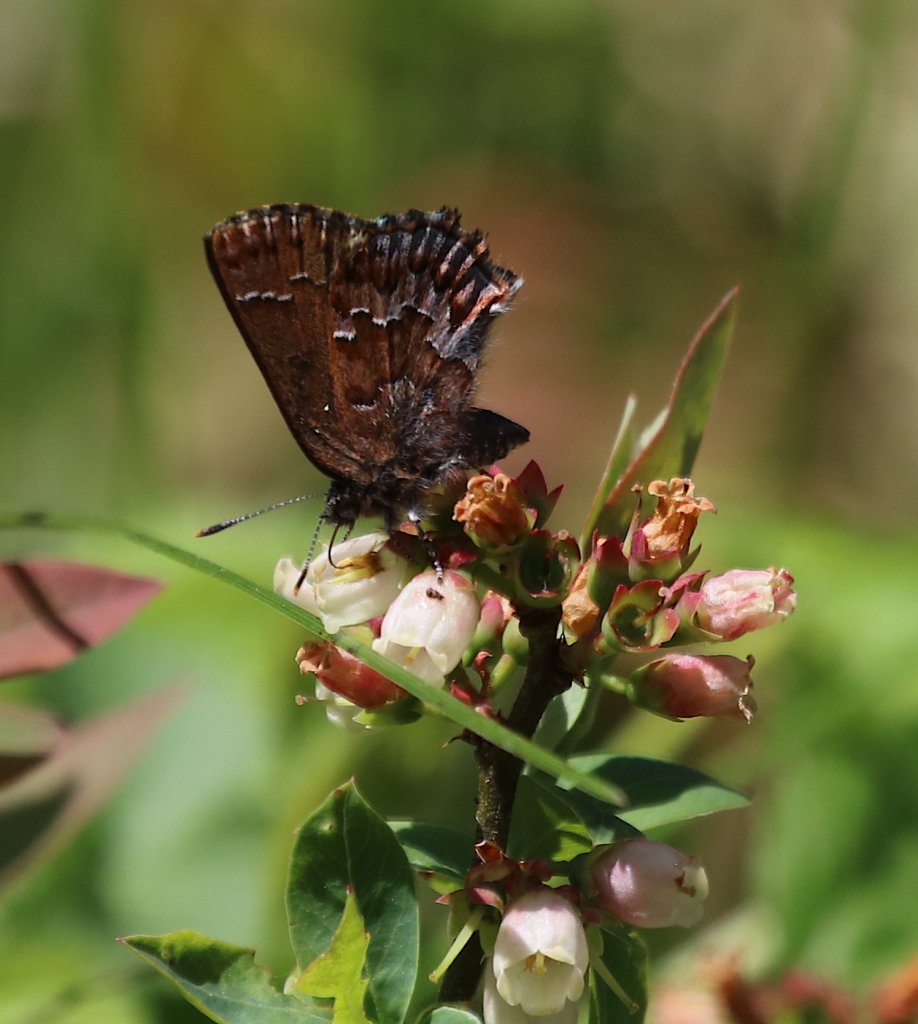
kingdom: Animalia
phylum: Arthropoda
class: Insecta
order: Lepidoptera
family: Lycaenidae
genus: Incisalia
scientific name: Incisalia niphon
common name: Eastern Pine Elfin
